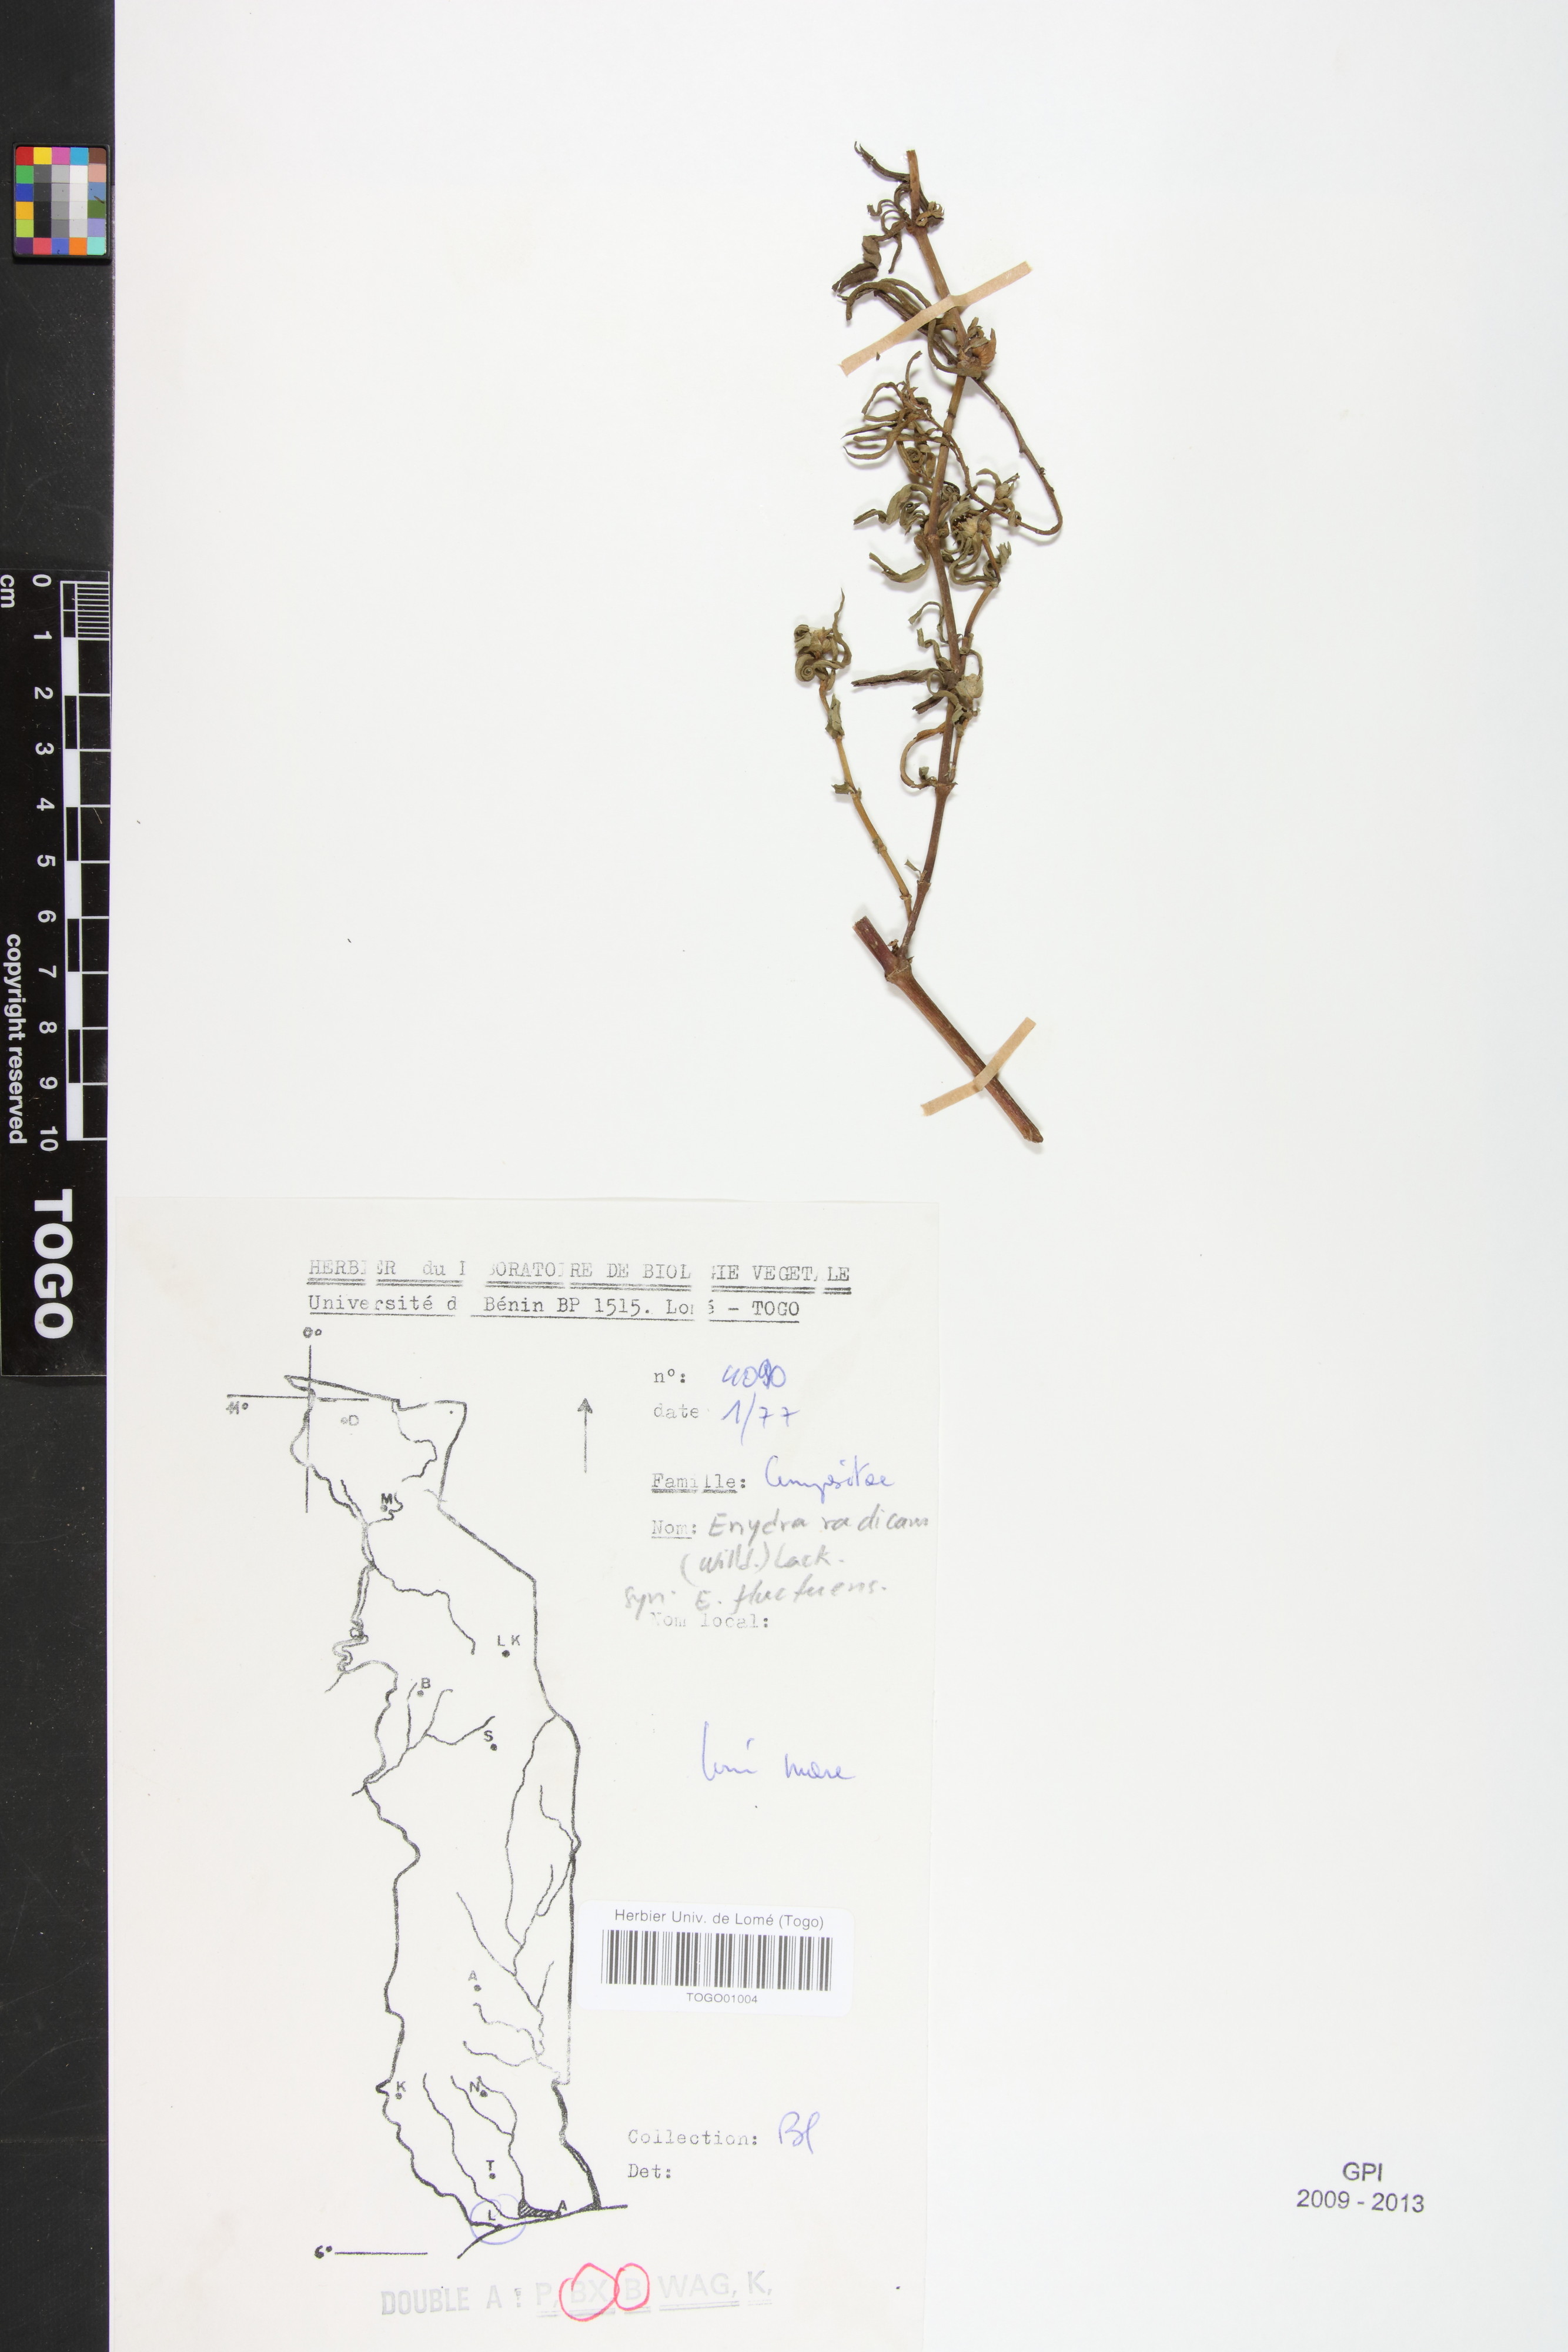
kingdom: Plantae
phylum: Tracheophyta
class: Magnoliopsida
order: Asterales
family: Asteraceae
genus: Enydra
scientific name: Enydra radicans
